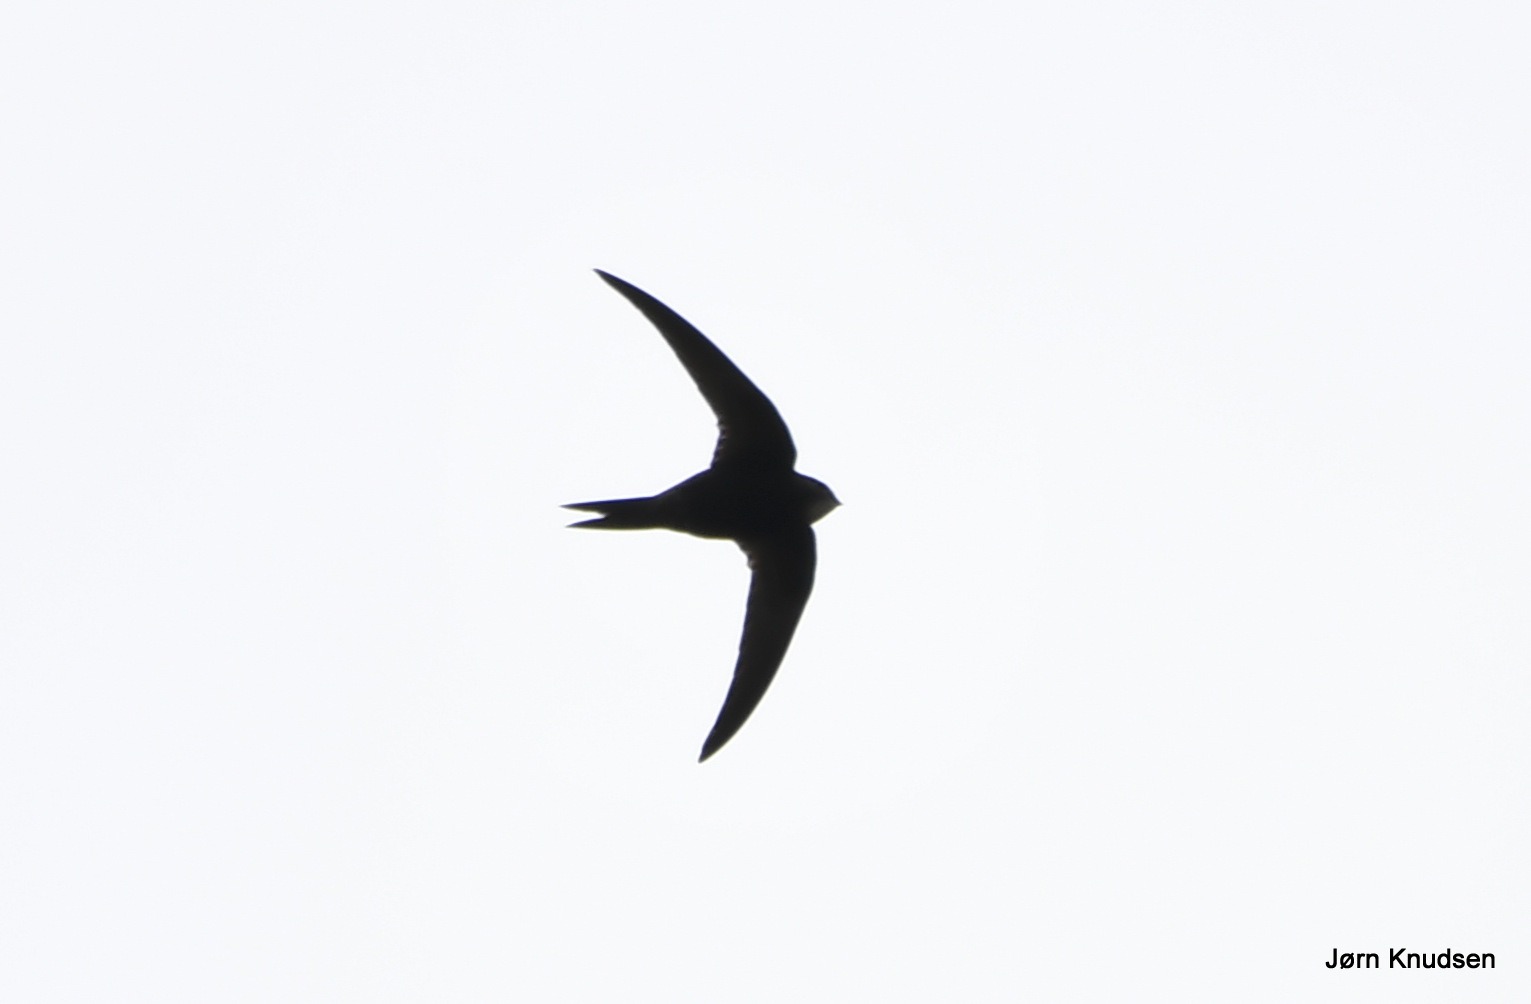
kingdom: Animalia
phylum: Chordata
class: Aves
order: Apodiformes
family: Apodidae
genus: Apus
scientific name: Apus apus
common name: Mursejler
